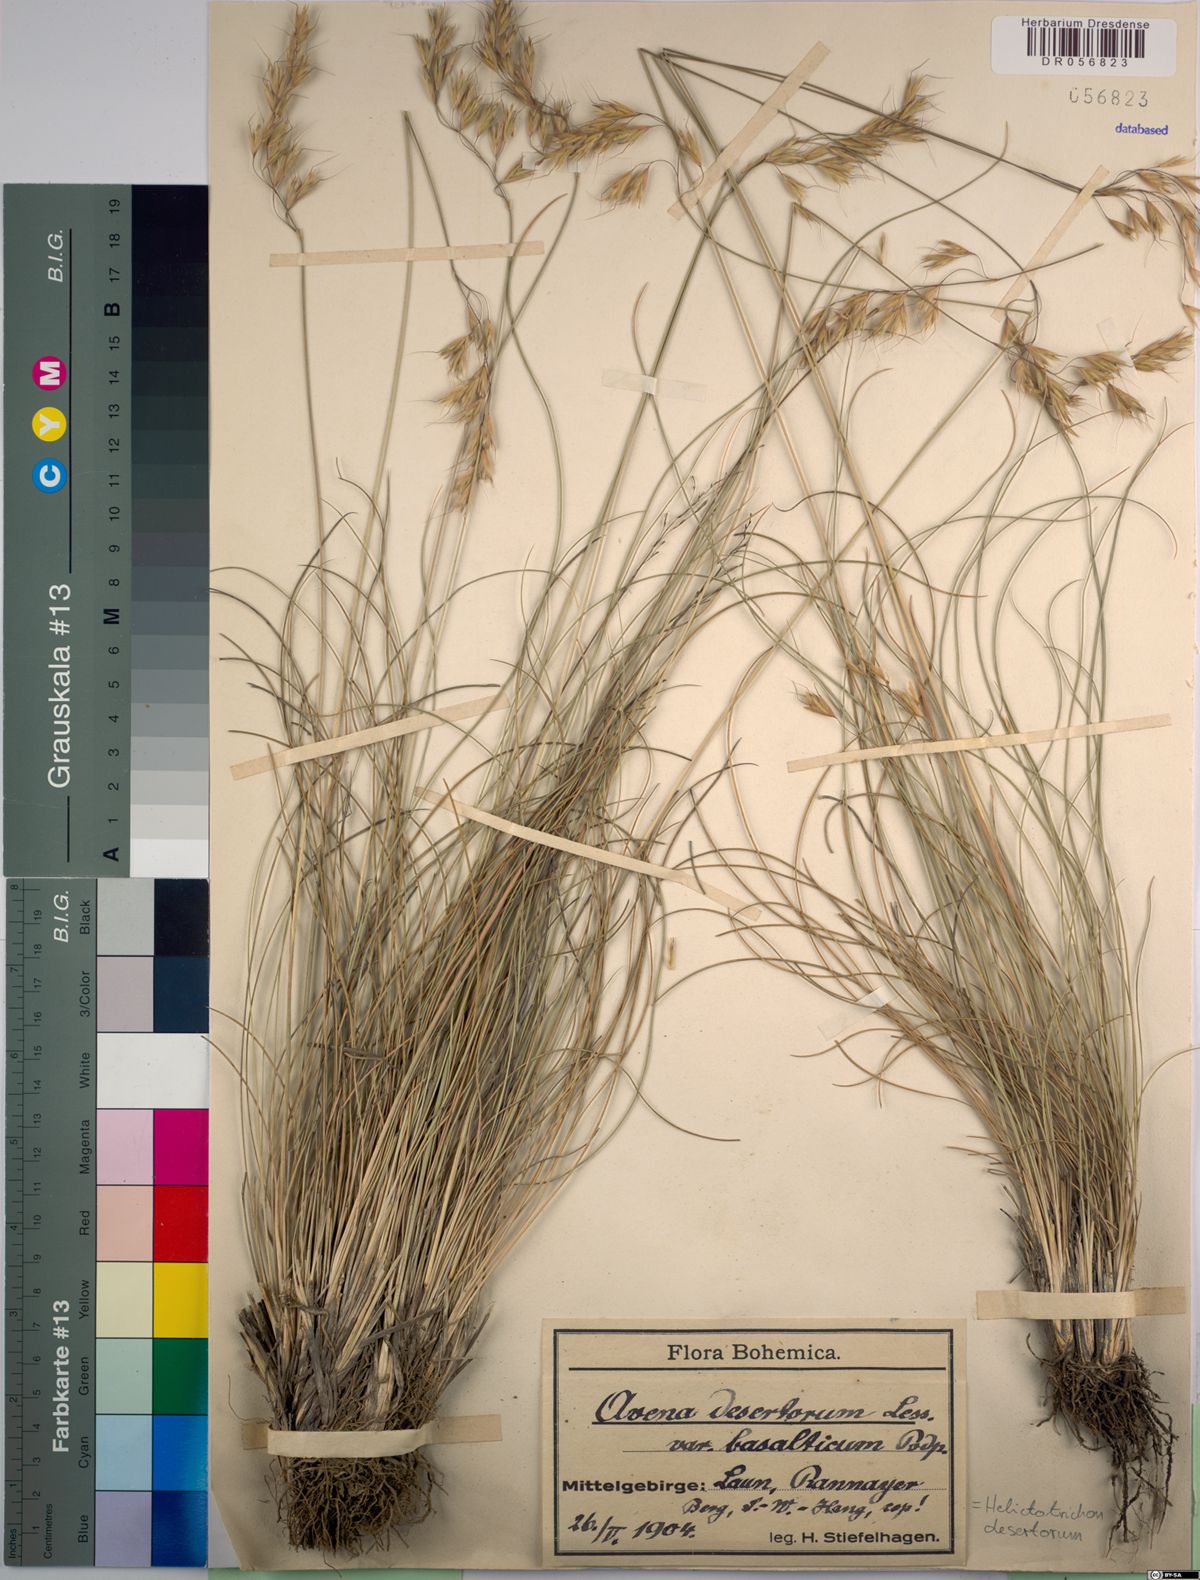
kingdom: Plantae
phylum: Tracheophyta
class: Liliopsida
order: Poales
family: Poaceae
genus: Helictotrichon
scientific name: Helictotrichon desertorum
